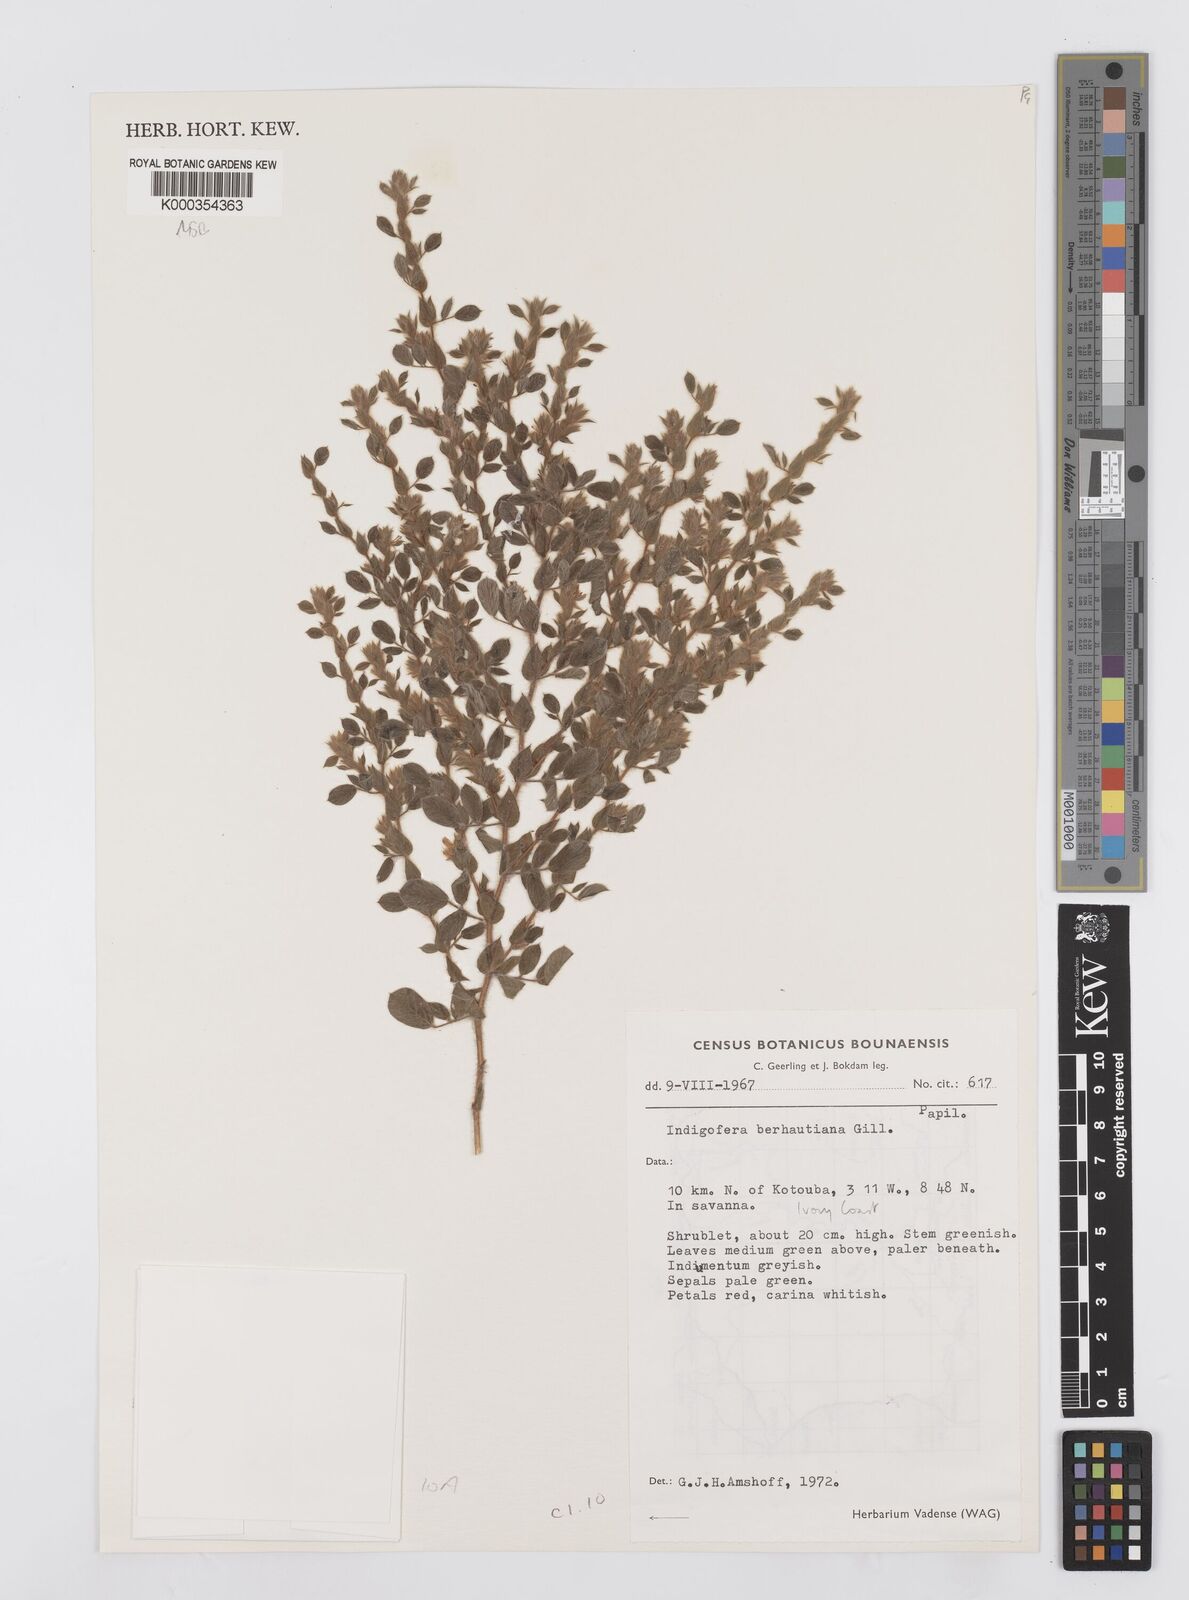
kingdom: Plantae
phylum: Tracheophyta
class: Magnoliopsida
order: Fabales
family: Fabaceae
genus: Indigofera
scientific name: Indigofera berhautiana
